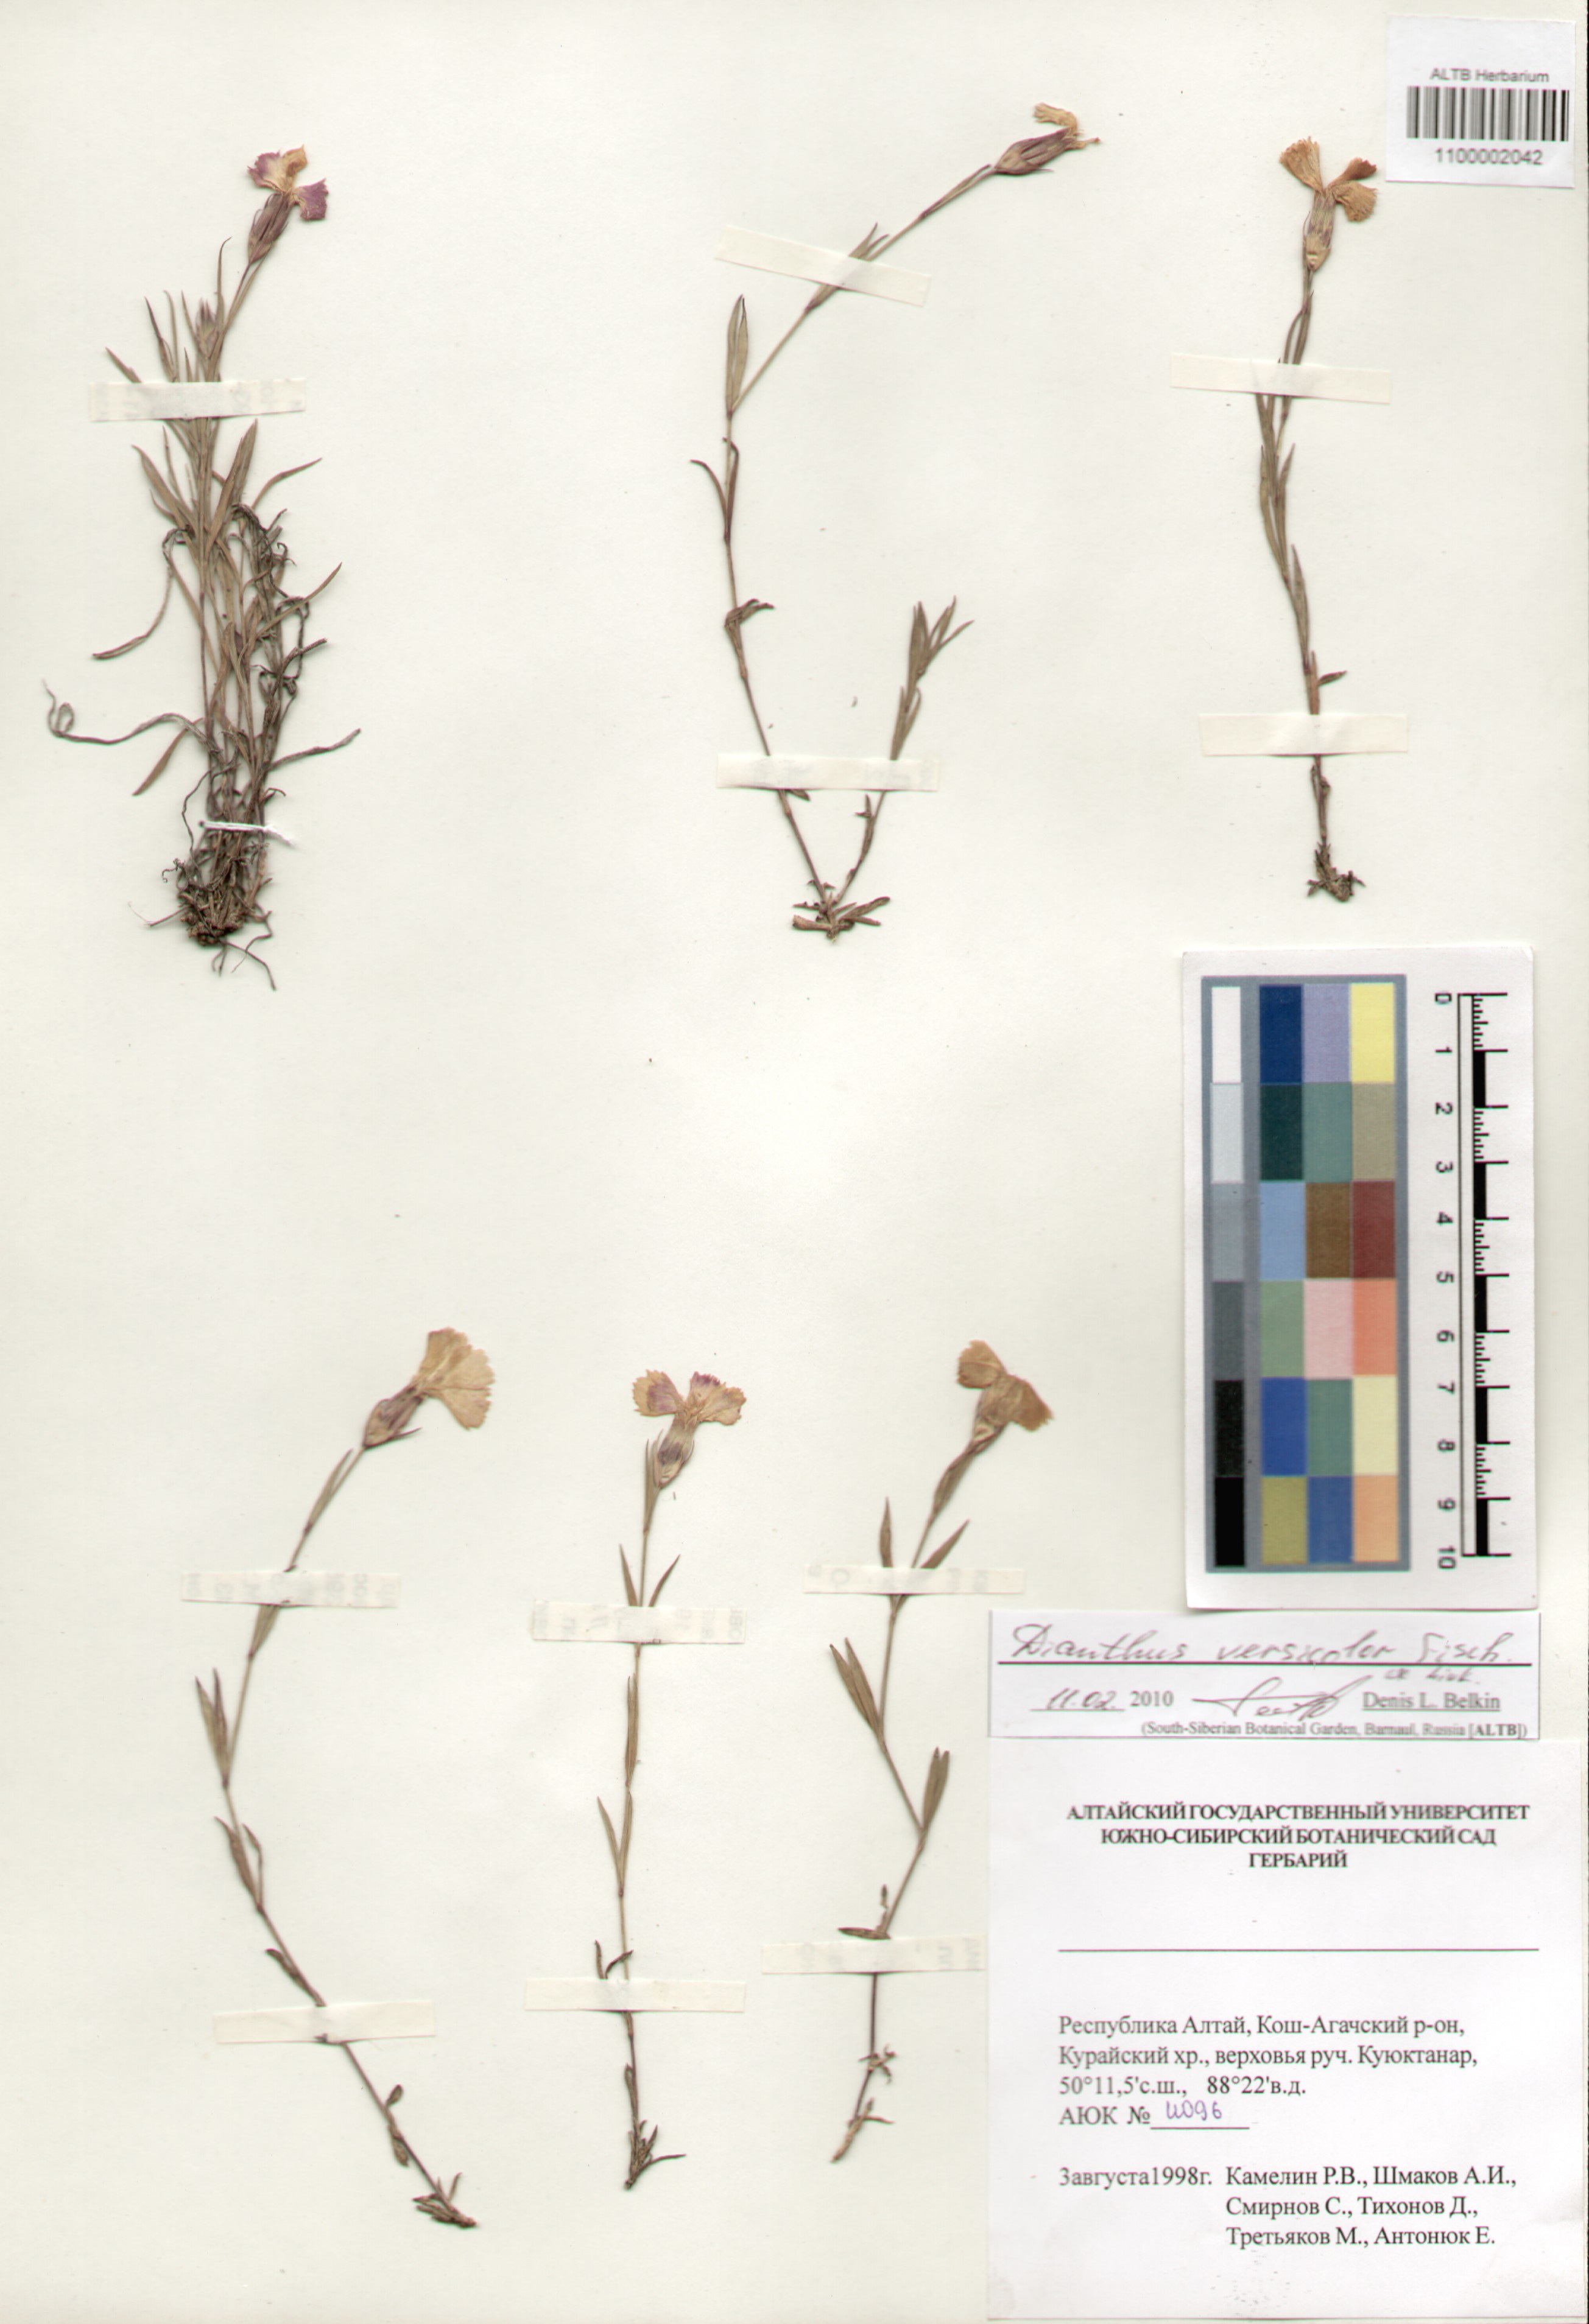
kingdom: Plantae
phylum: Tracheophyta
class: Magnoliopsida
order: Caryophyllales
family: Caryophyllaceae
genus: Dianthus
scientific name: Dianthus chinensis
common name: Rainbow pink
